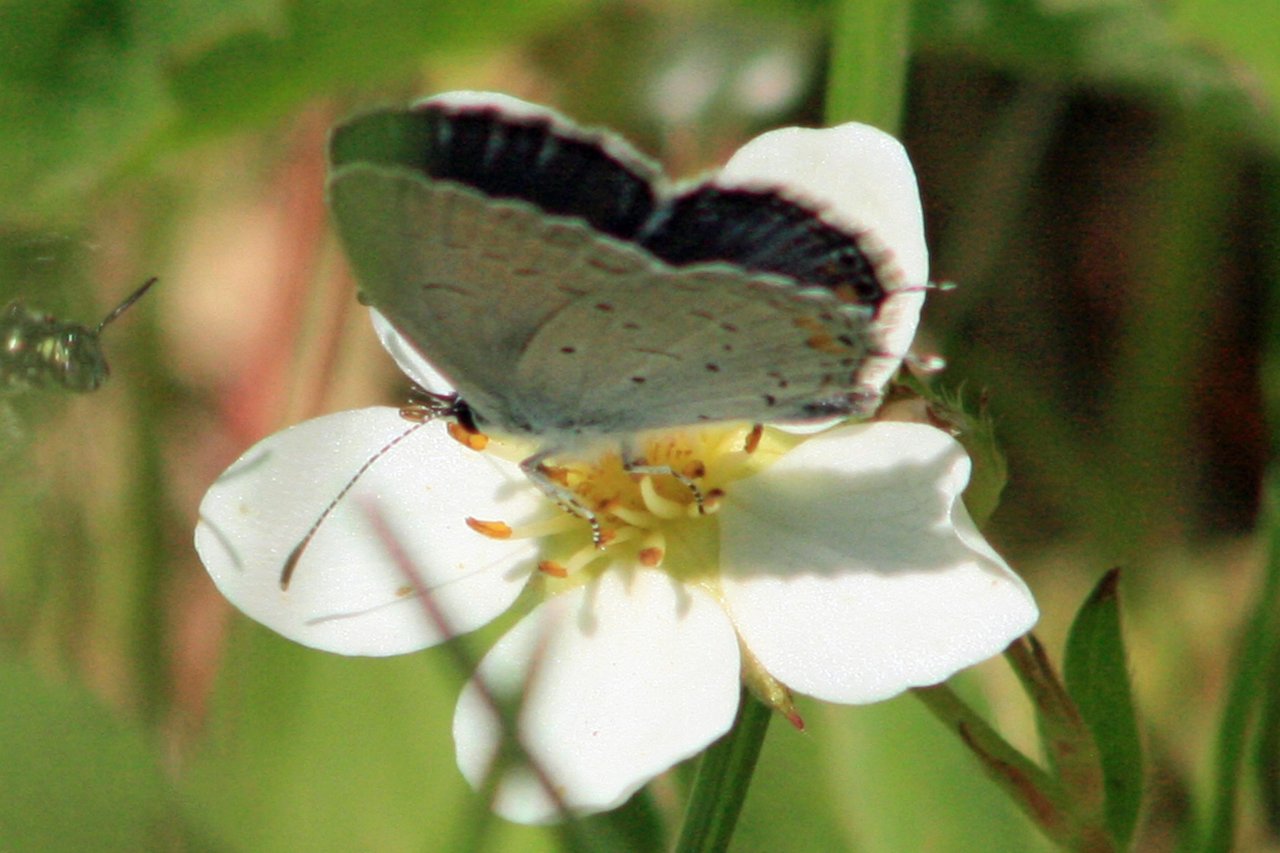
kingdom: Animalia
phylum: Arthropoda
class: Insecta
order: Lepidoptera
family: Lycaenidae
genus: Elkalyce
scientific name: Elkalyce comyntas
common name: Eastern Tailed-Blue
